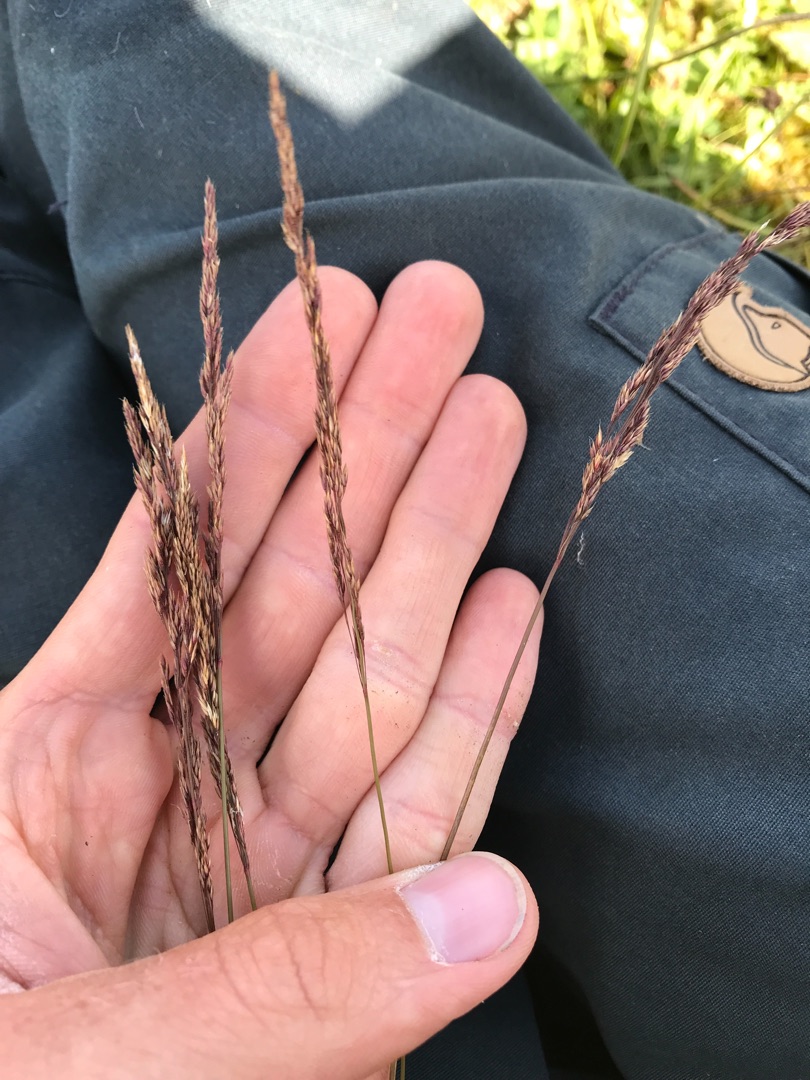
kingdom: Plantae
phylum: Tracheophyta
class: Liliopsida
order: Poales
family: Poaceae
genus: Agrostis
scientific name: Agrostis vinealis
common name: Sand-hvene
